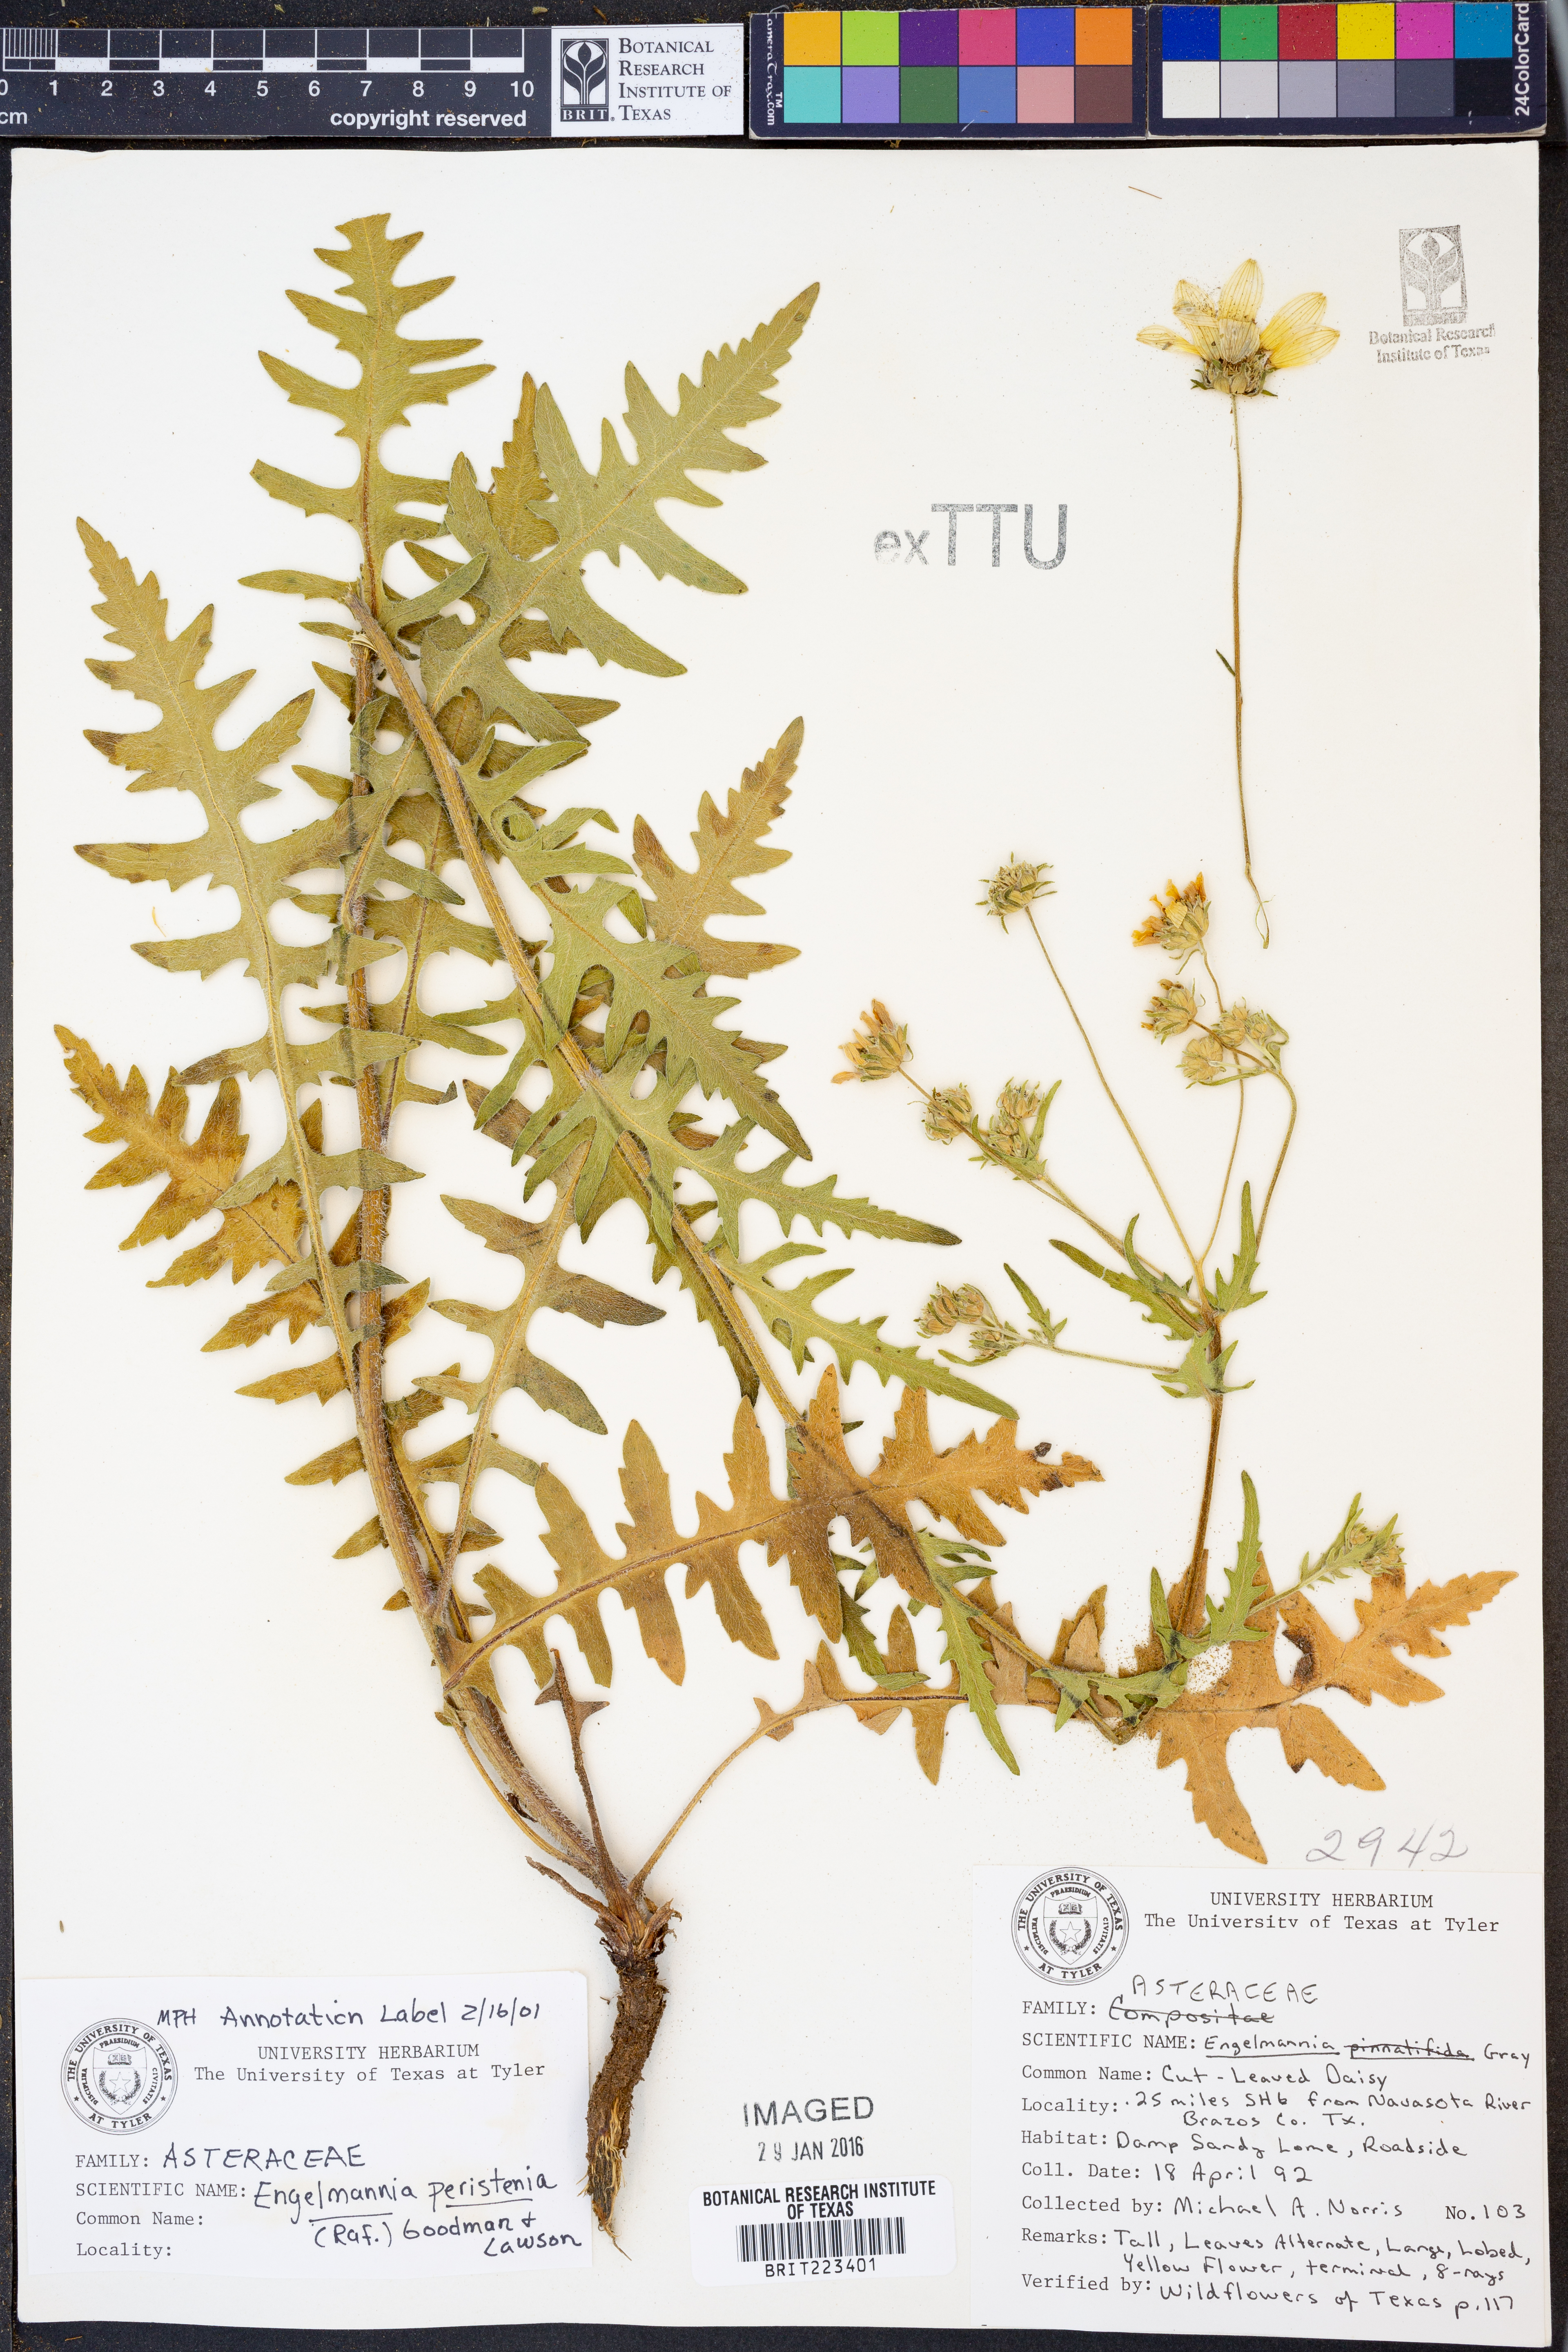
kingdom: Plantae
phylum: Tracheophyta
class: Magnoliopsida
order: Asterales
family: Asteraceae
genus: Engelmannia
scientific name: Engelmannia peristenia
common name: Engelmann's daisy
